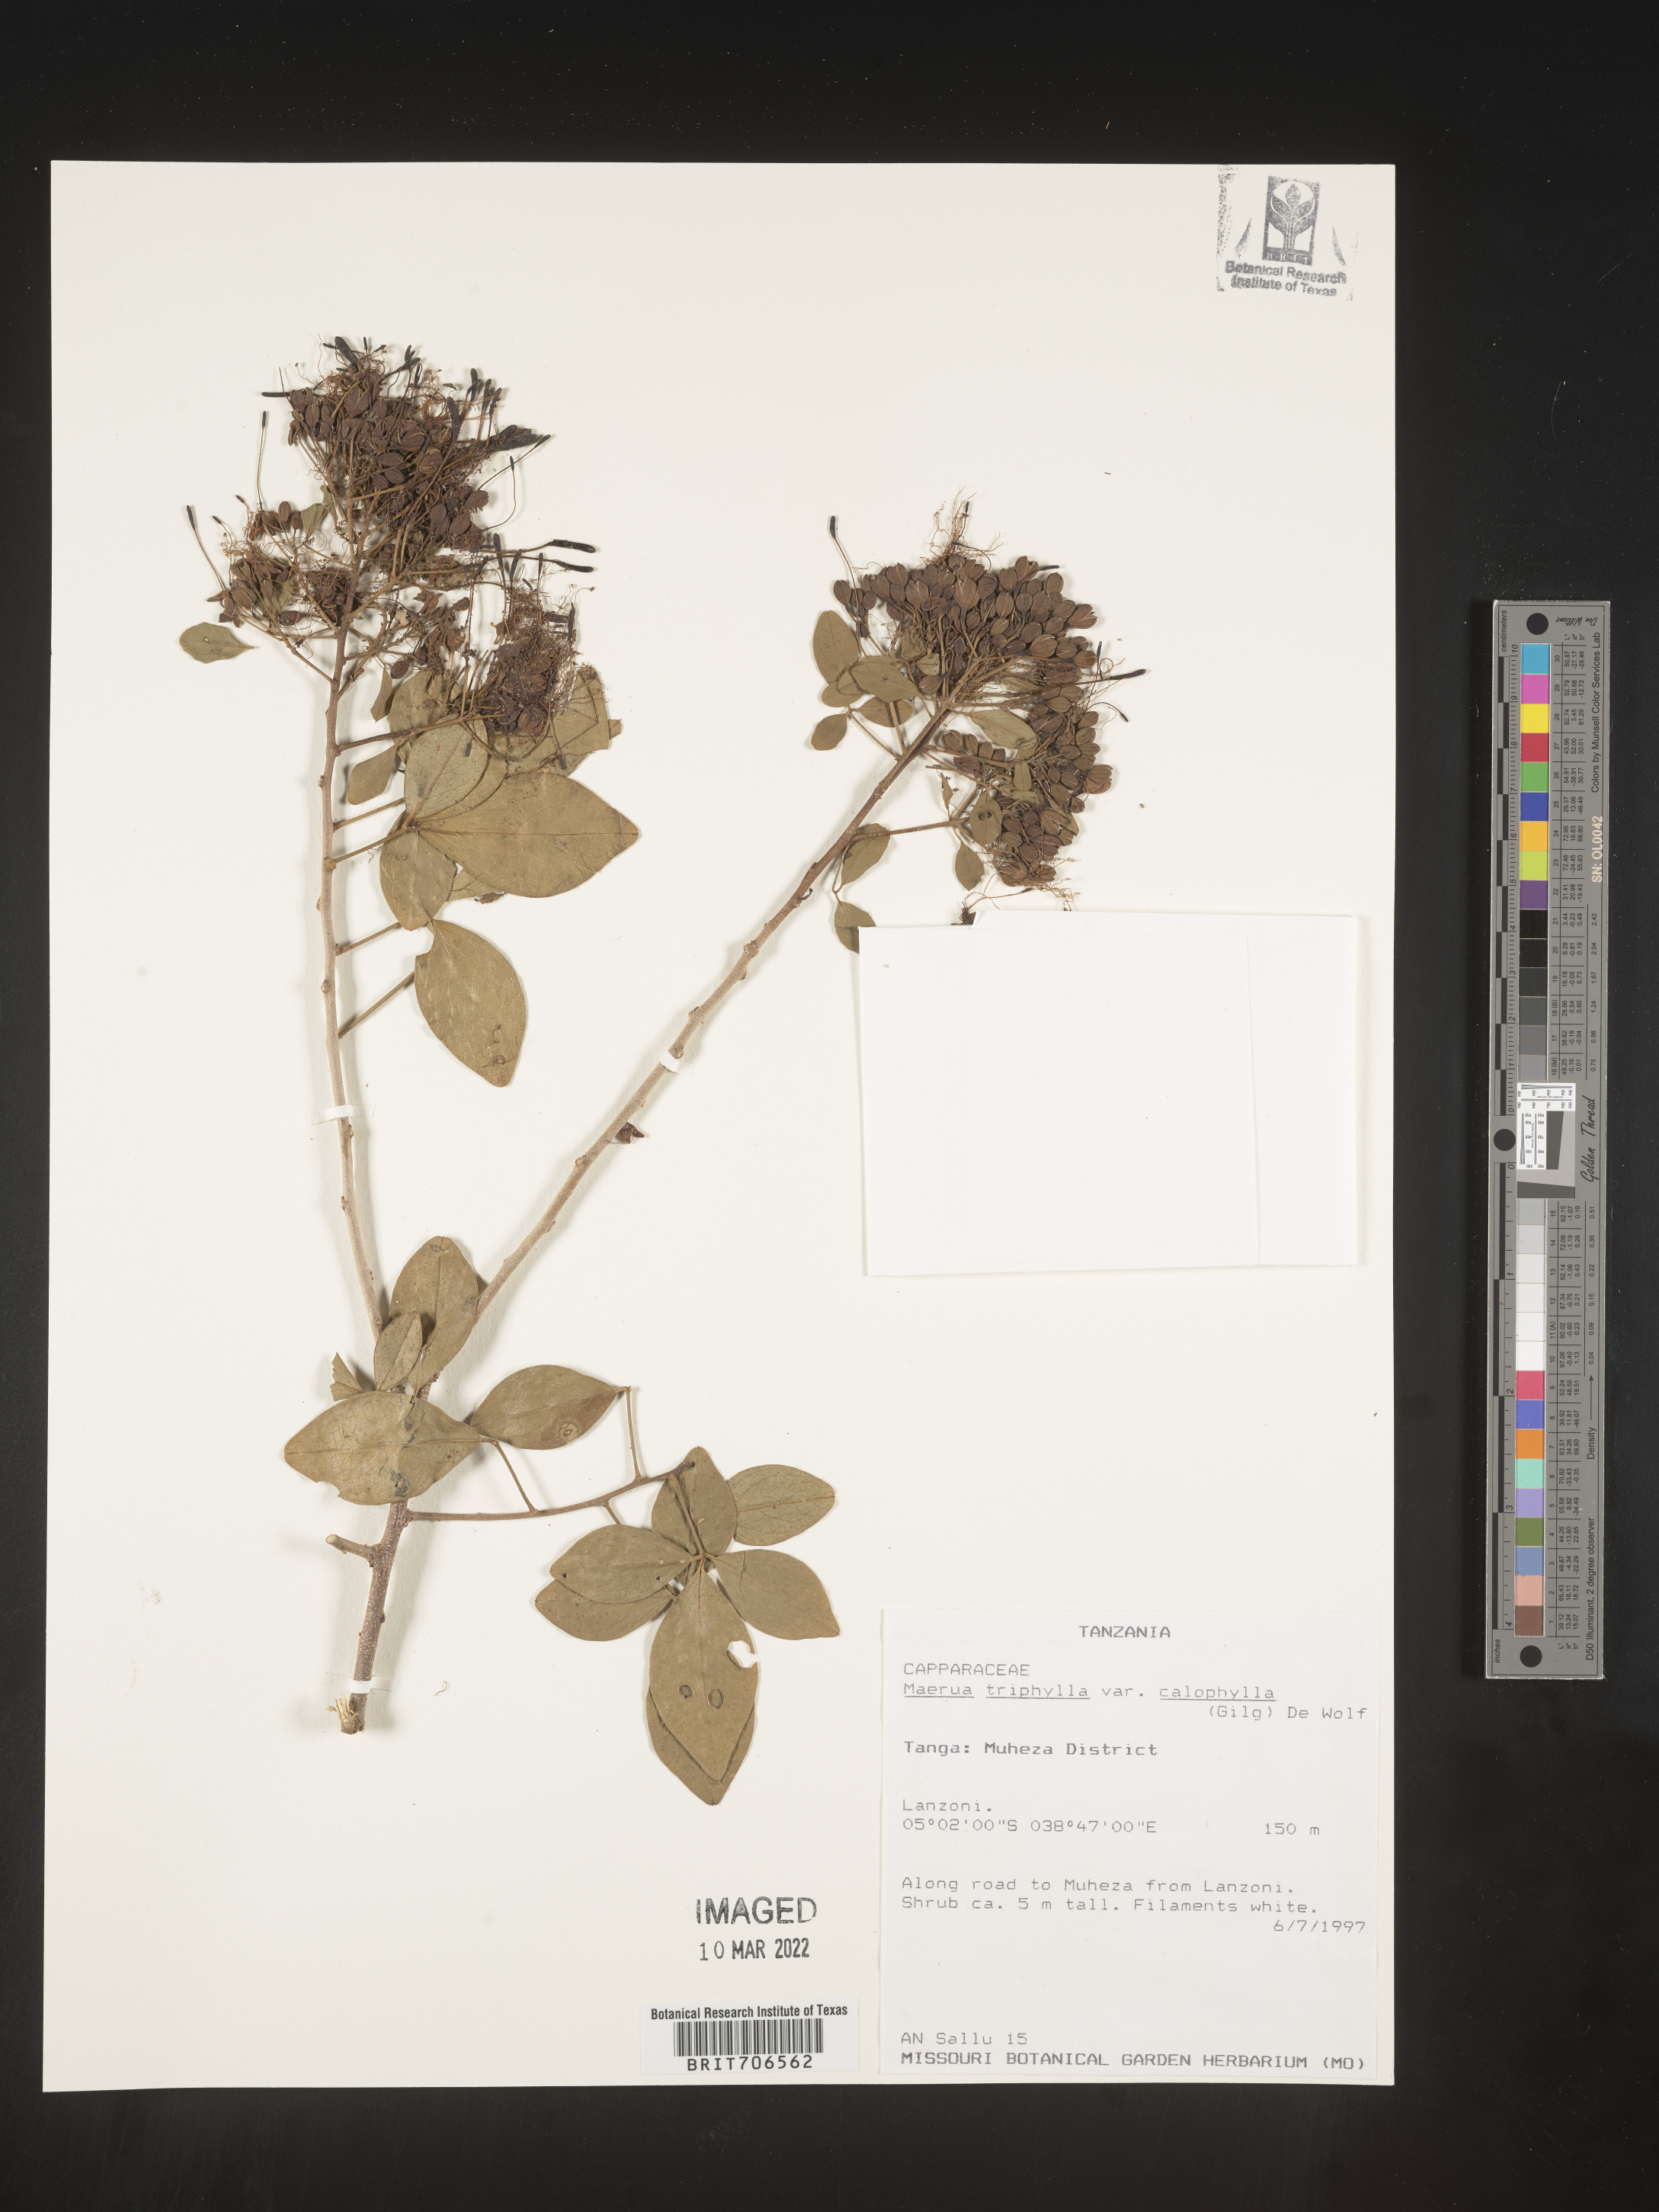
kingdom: Plantae
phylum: Tracheophyta
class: Magnoliopsida
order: Brassicales
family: Capparaceae
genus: Maerua
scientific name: Maerua
